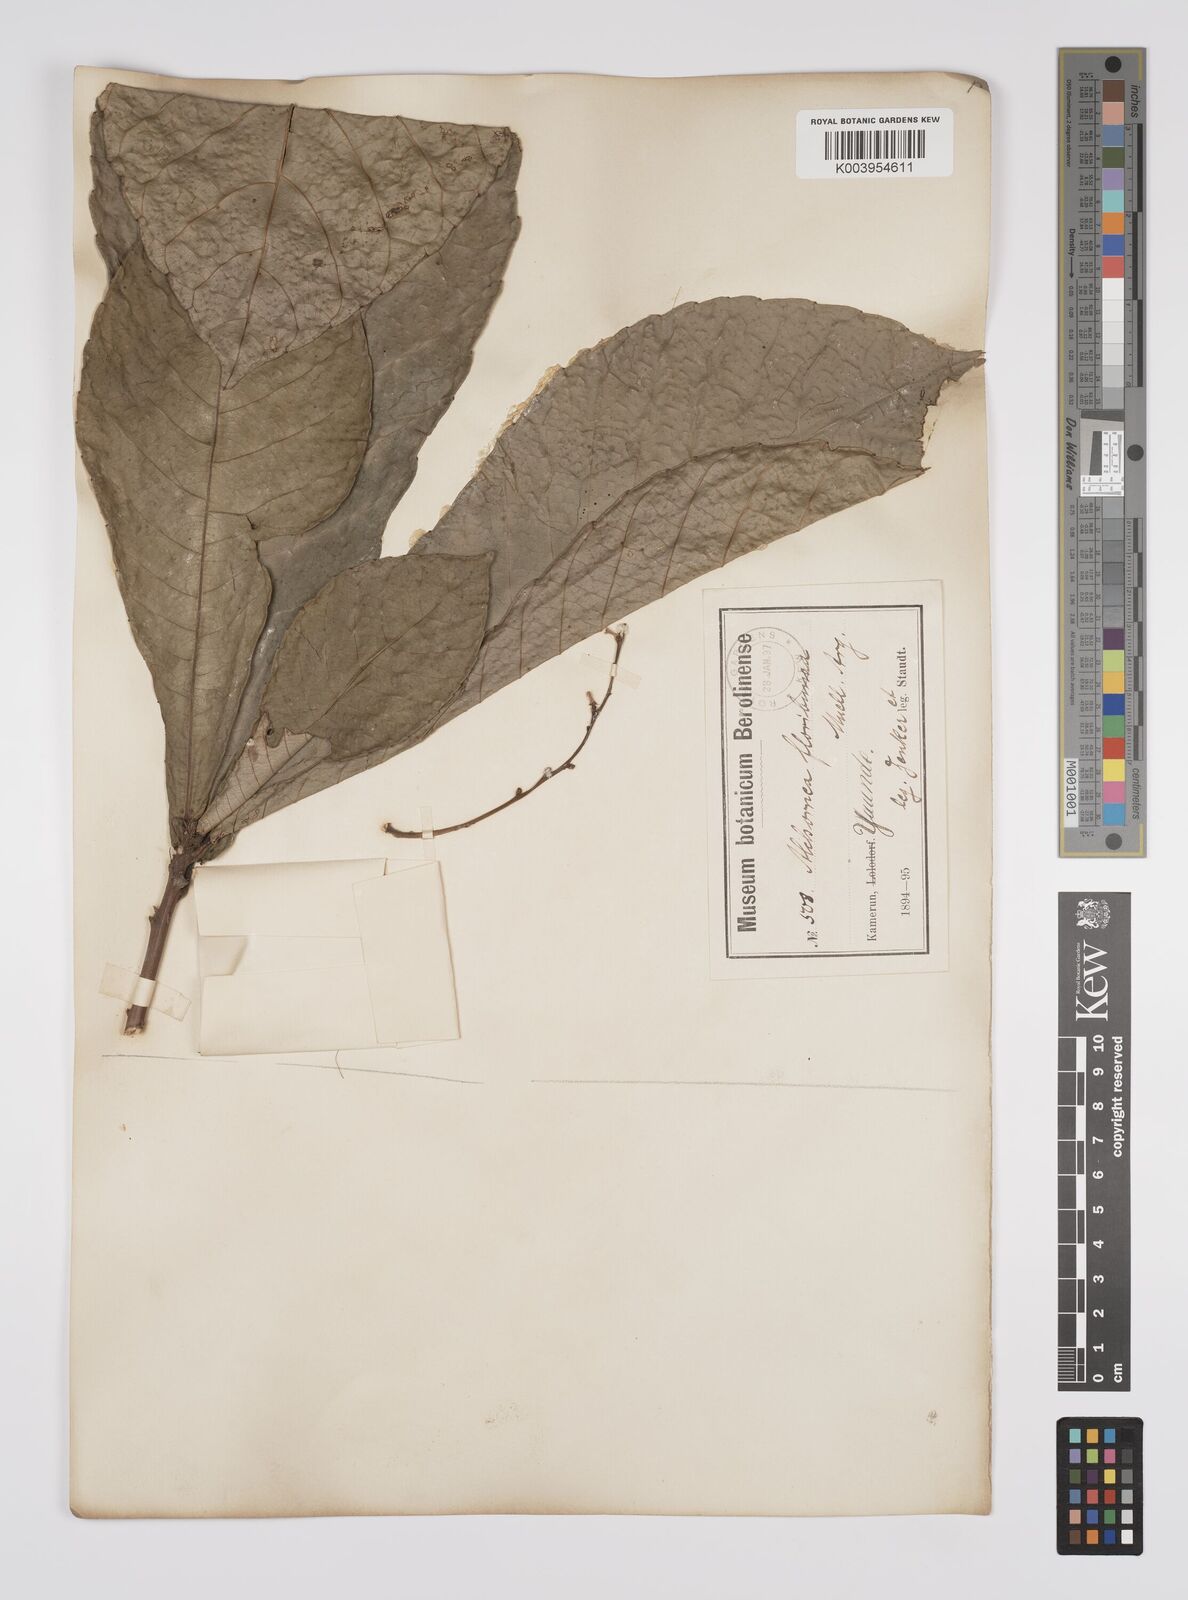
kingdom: Plantae
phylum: Tracheophyta
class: Magnoliopsida
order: Malpighiales
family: Euphorbiaceae
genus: Alchornea
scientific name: Alchornea floribunda
